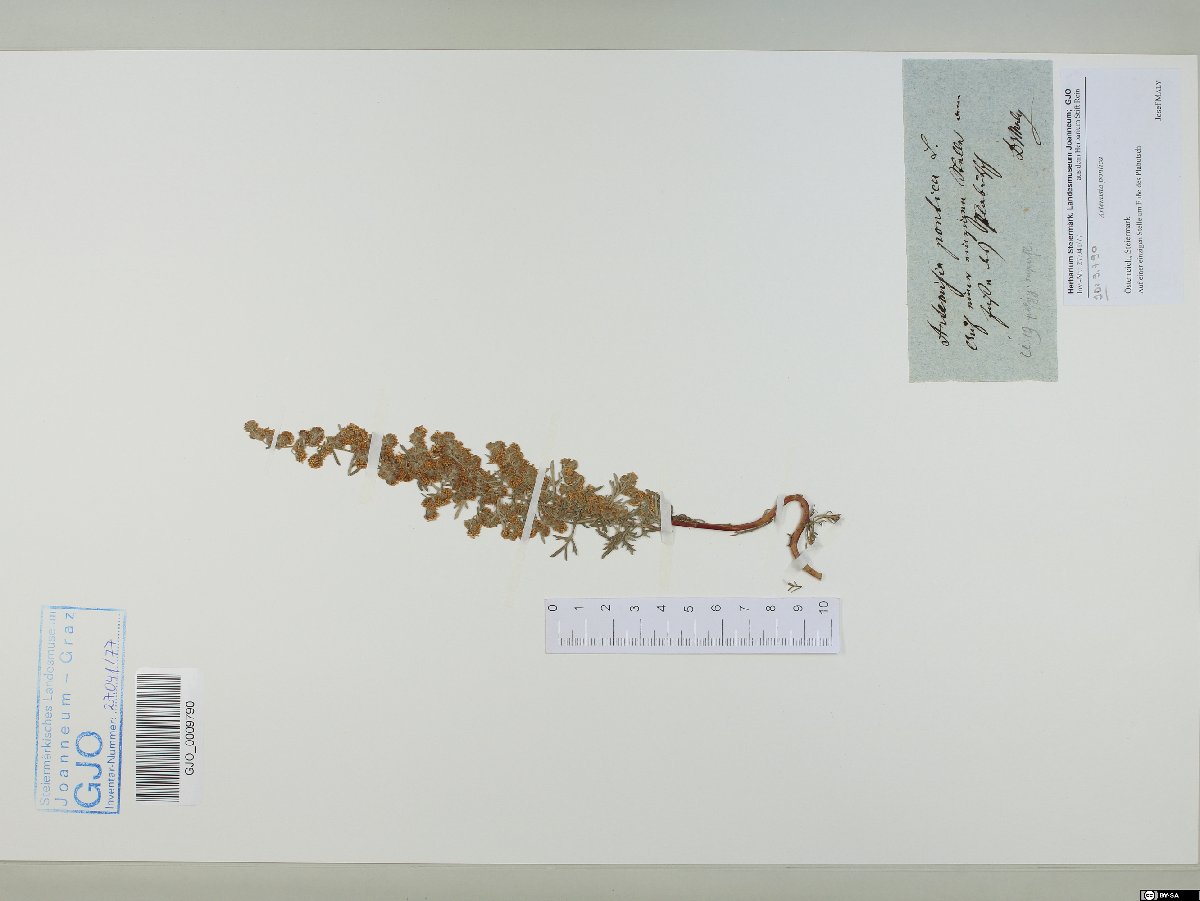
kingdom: Plantae
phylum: Tracheophyta
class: Magnoliopsida
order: Asterales
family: Asteraceae
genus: Artemisia
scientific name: Artemisia pontica
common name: Roman wormwood
